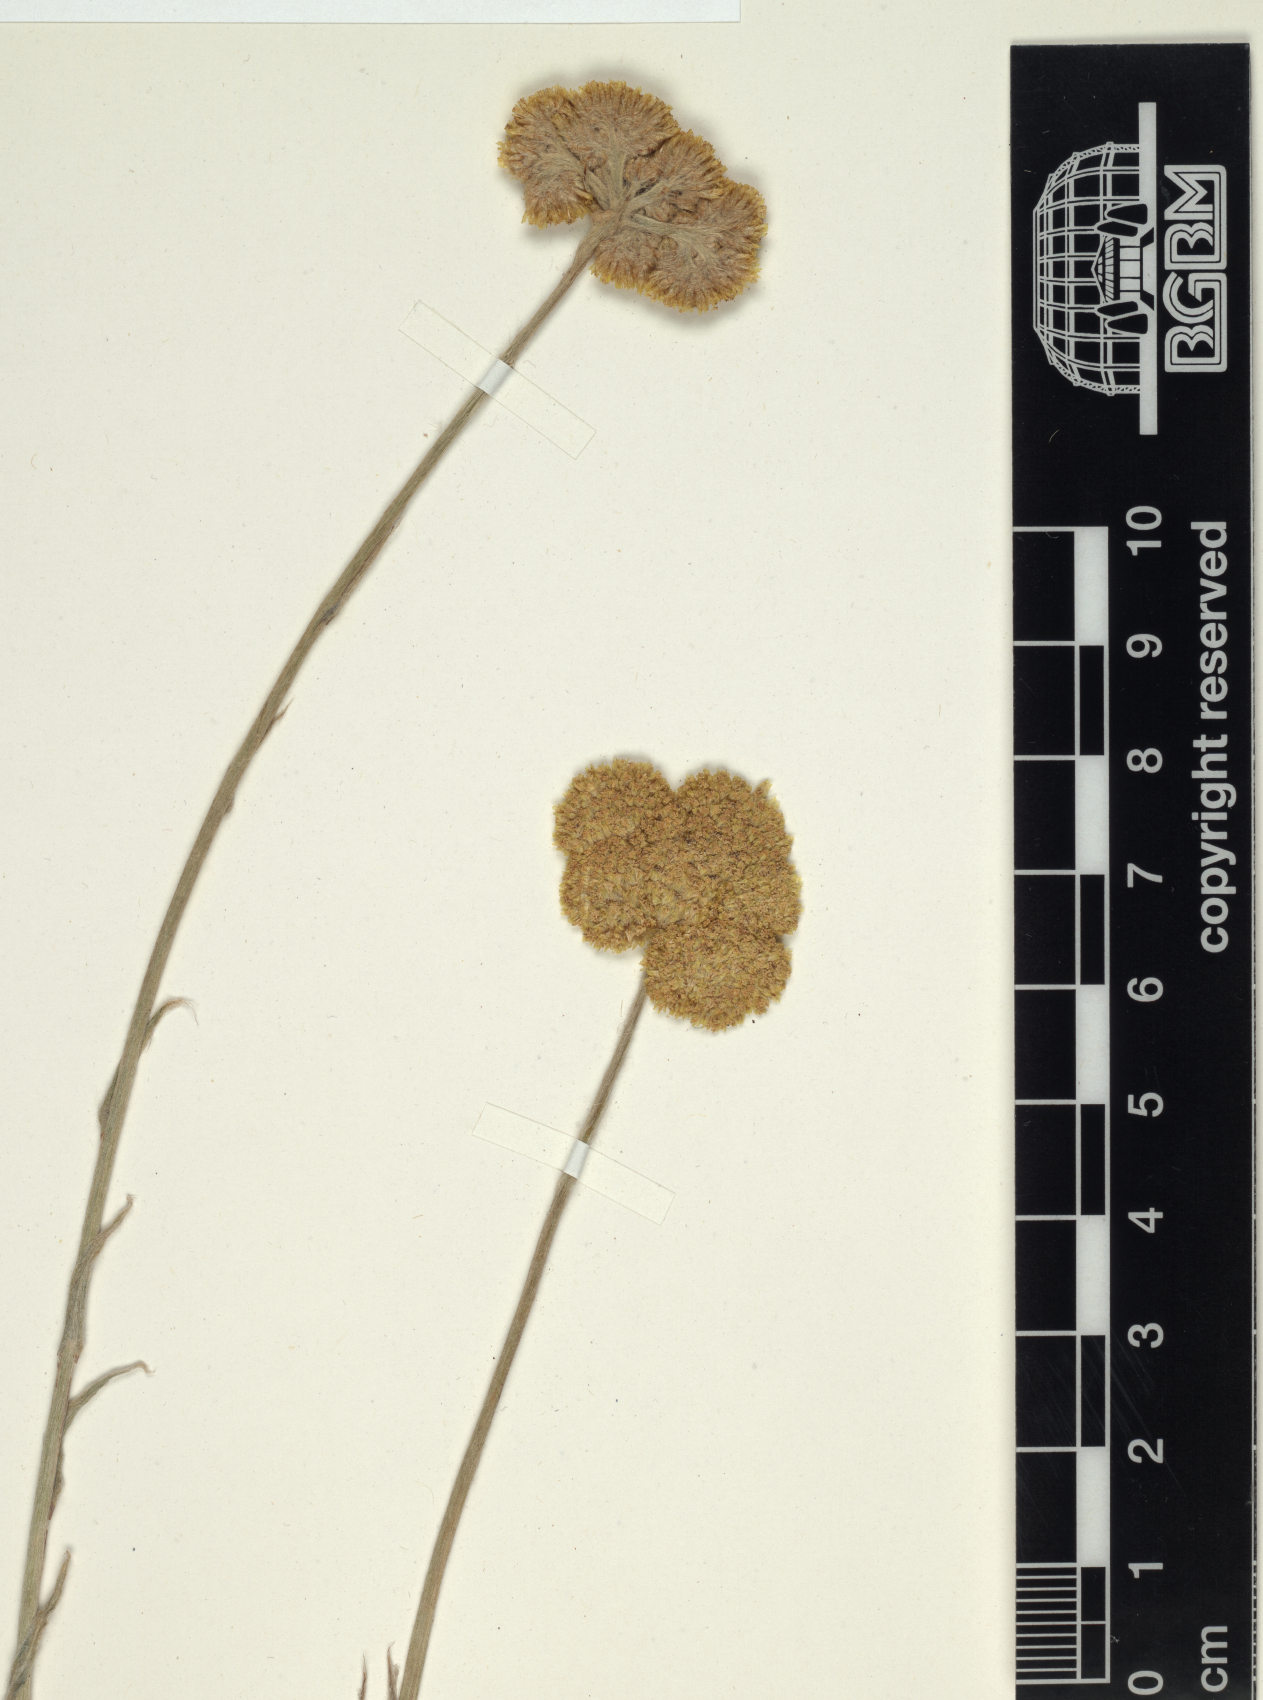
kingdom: Plantae
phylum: Tracheophyta
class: Magnoliopsida
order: Asterales
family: Asteraceae
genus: Helichrysum
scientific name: Helichrysum stenopterum
